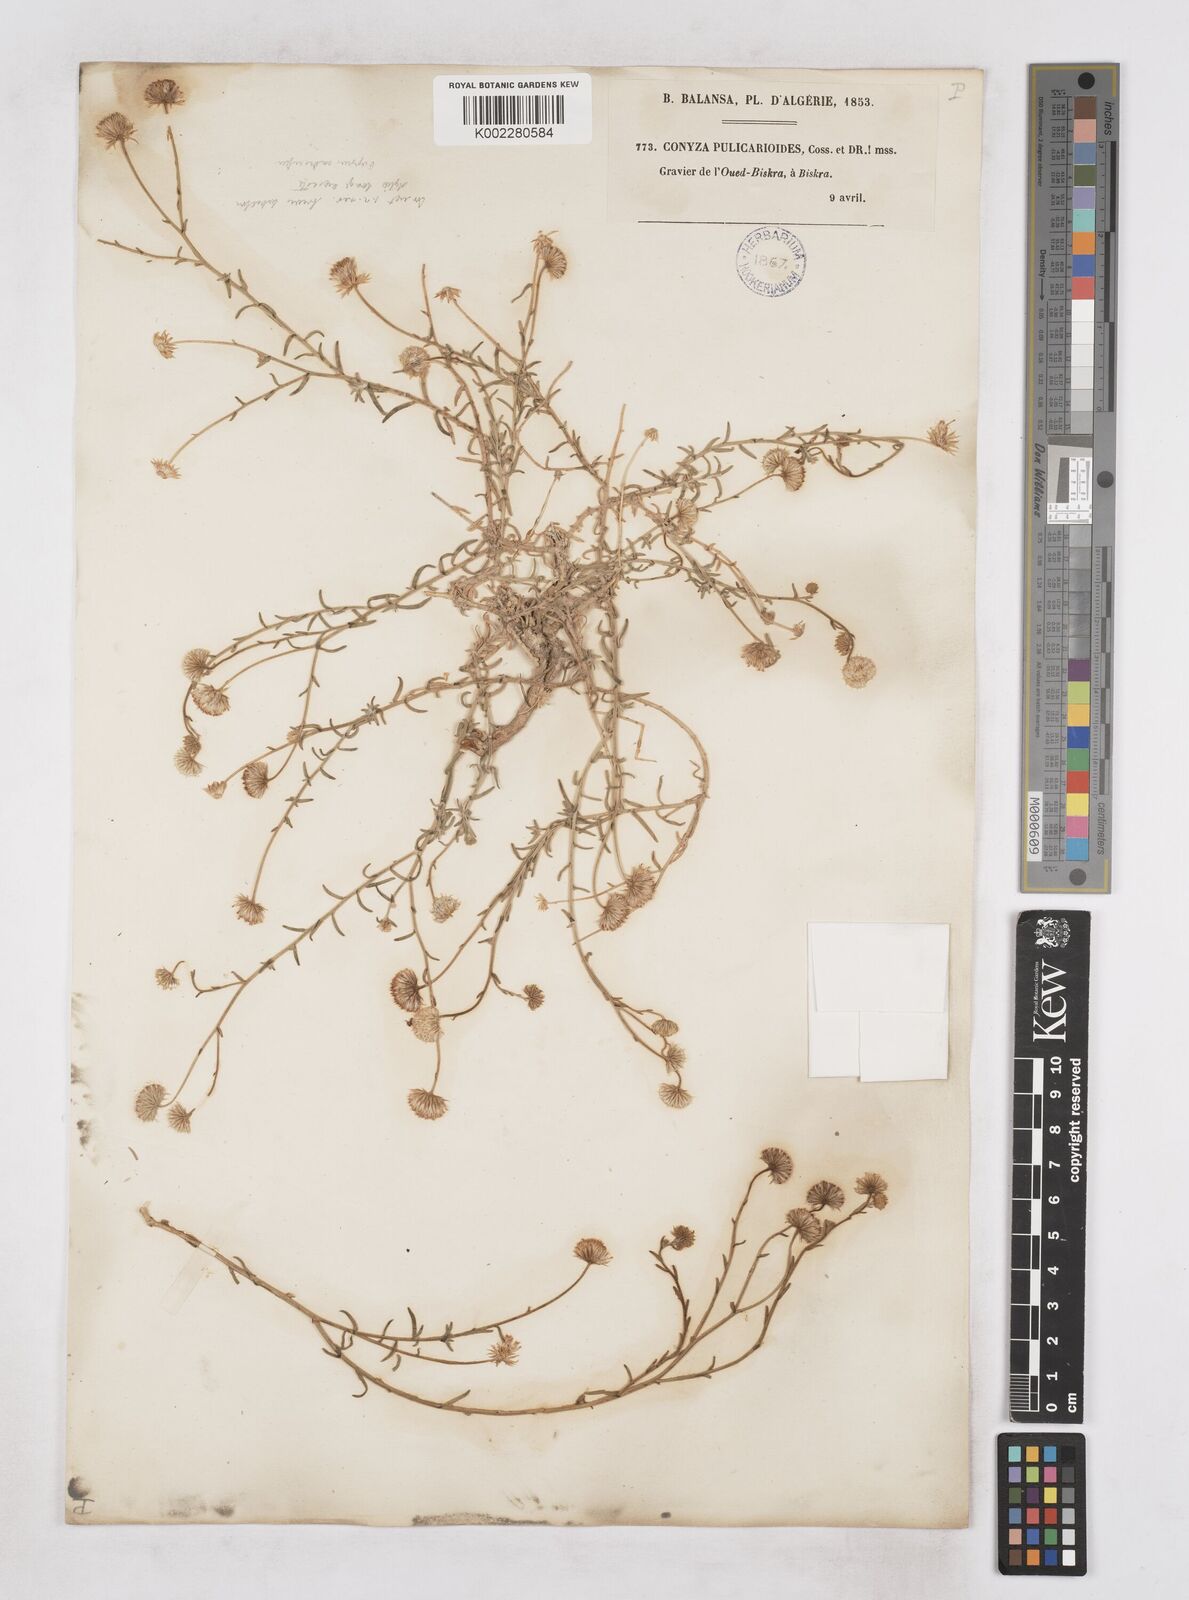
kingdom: Plantae
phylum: Tracheophyta
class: Magnoliopsida
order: Asterales
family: Asteraceae
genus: Nolletia
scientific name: Nolletia chrysocomoides
